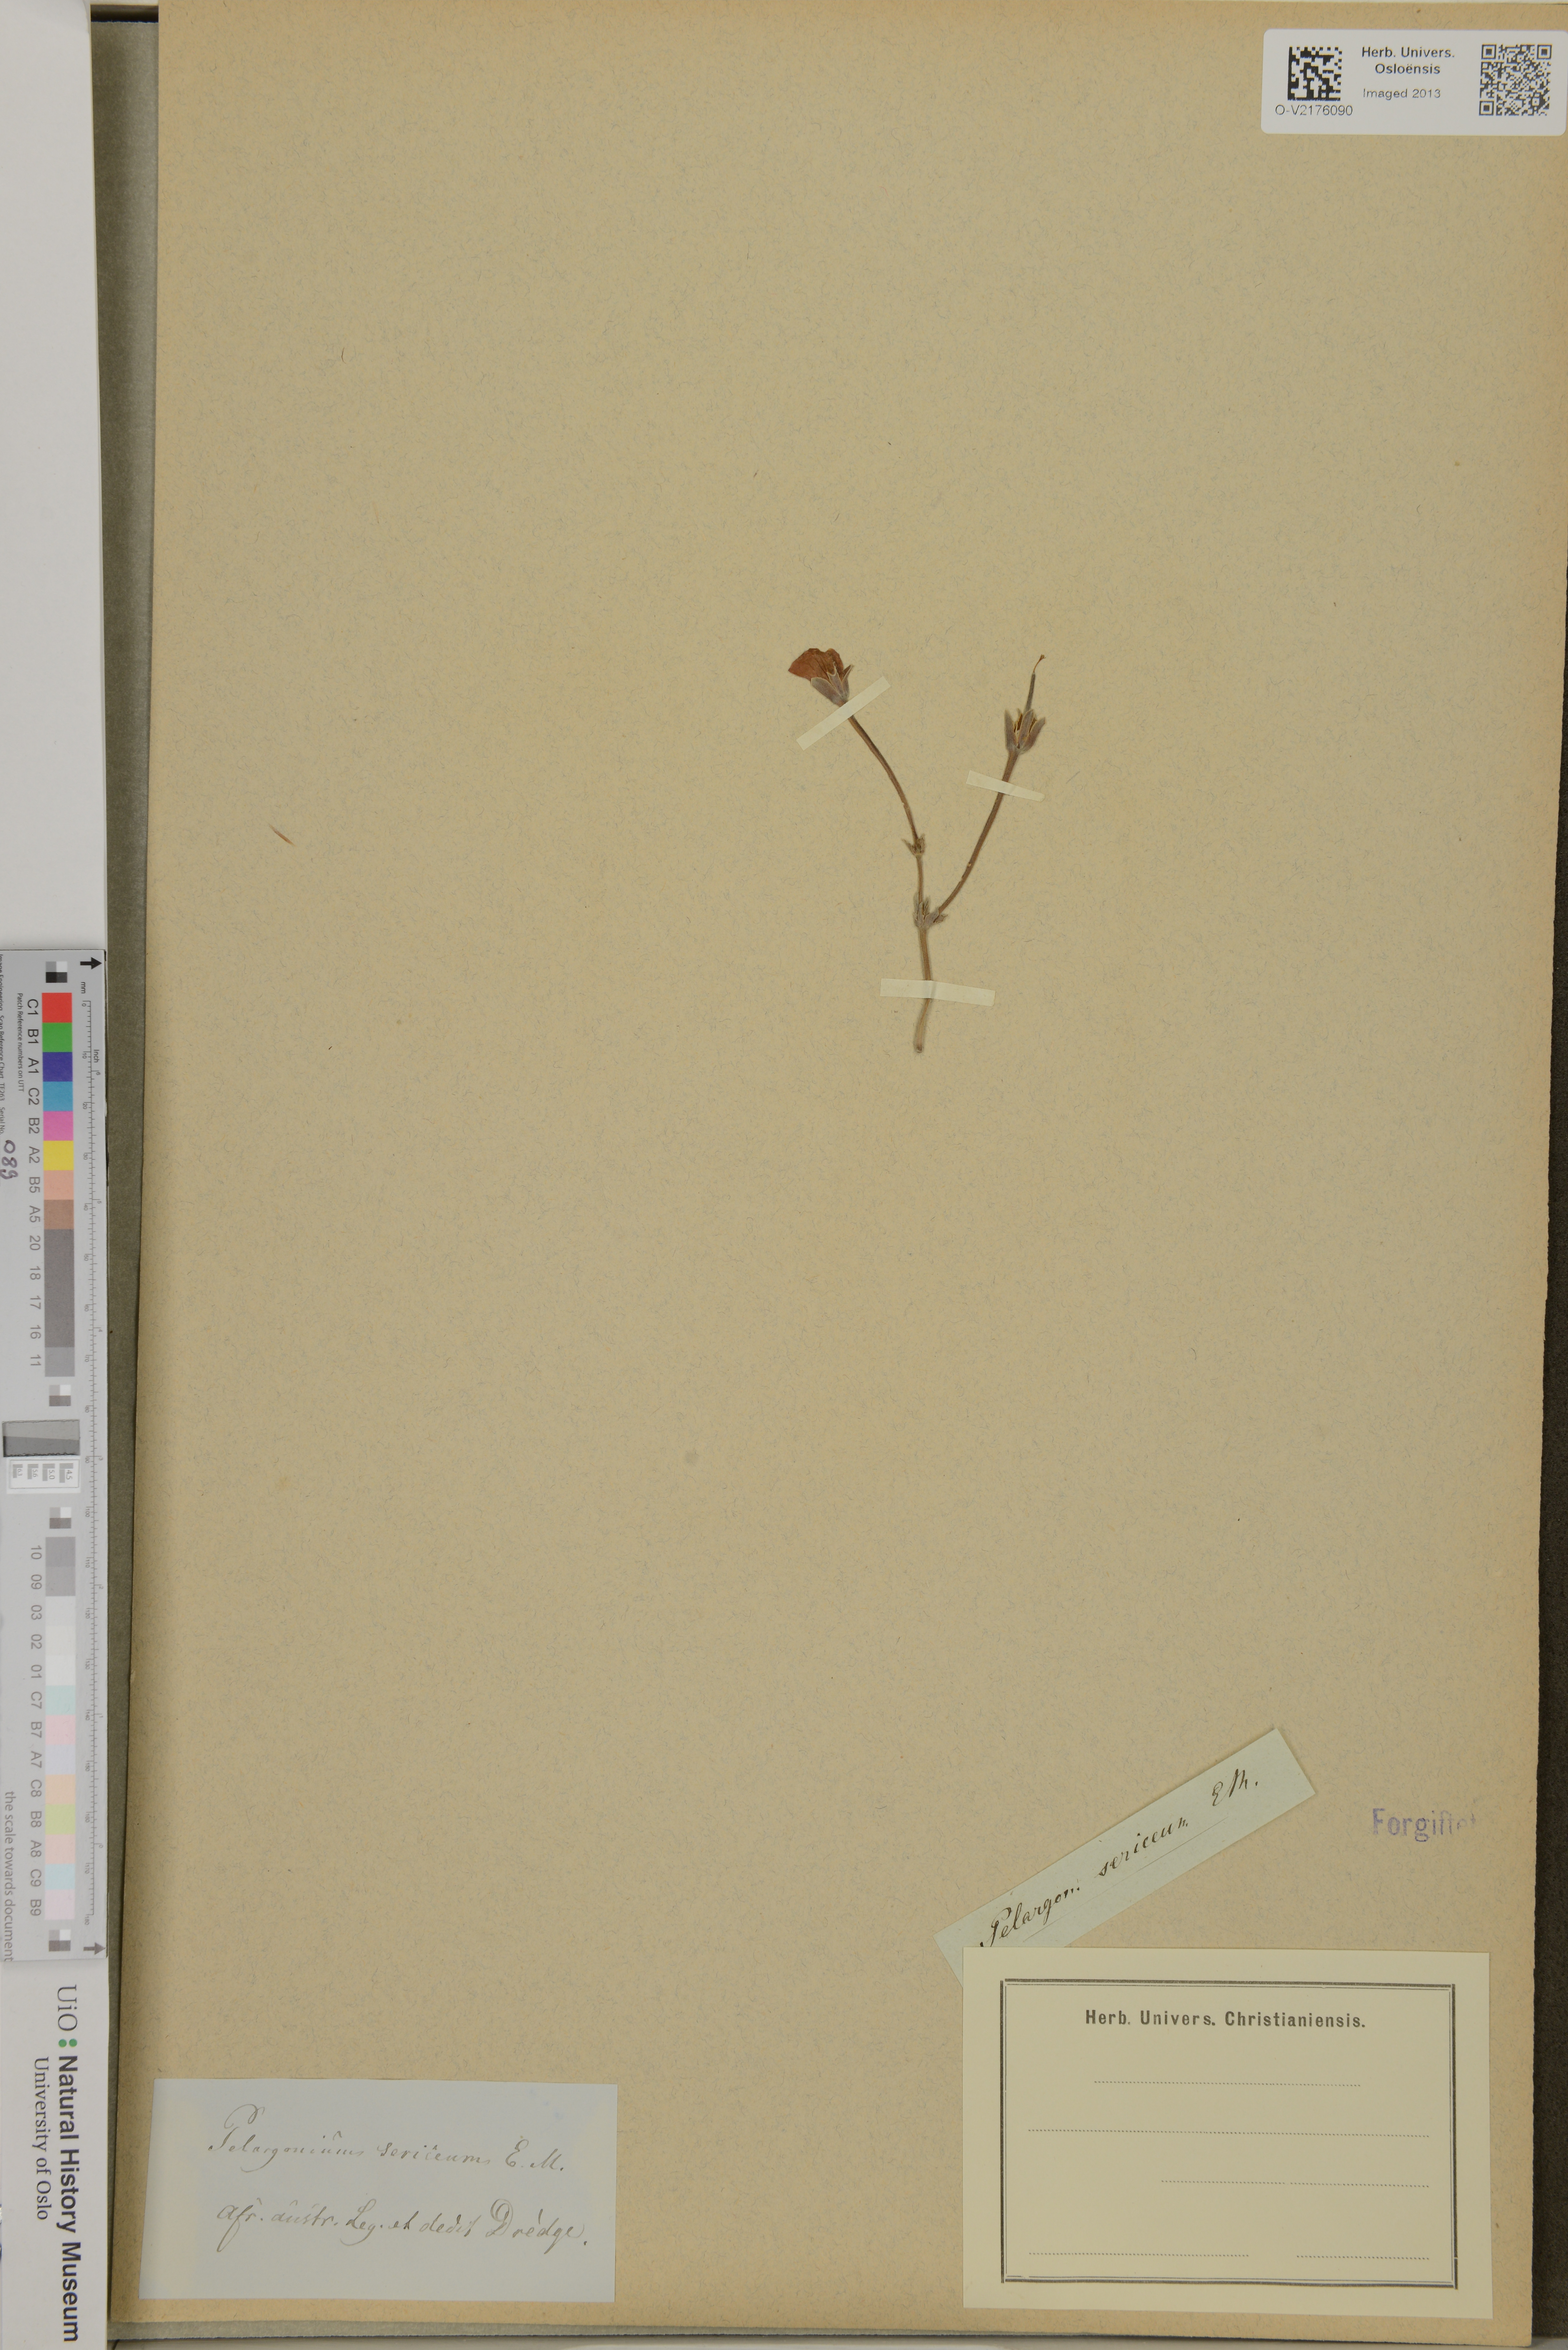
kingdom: Plantae
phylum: Tracheophyta
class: Magnoliopsida
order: Geraniales
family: Geraniaceae
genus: Pelargonium
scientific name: Pelargonium
